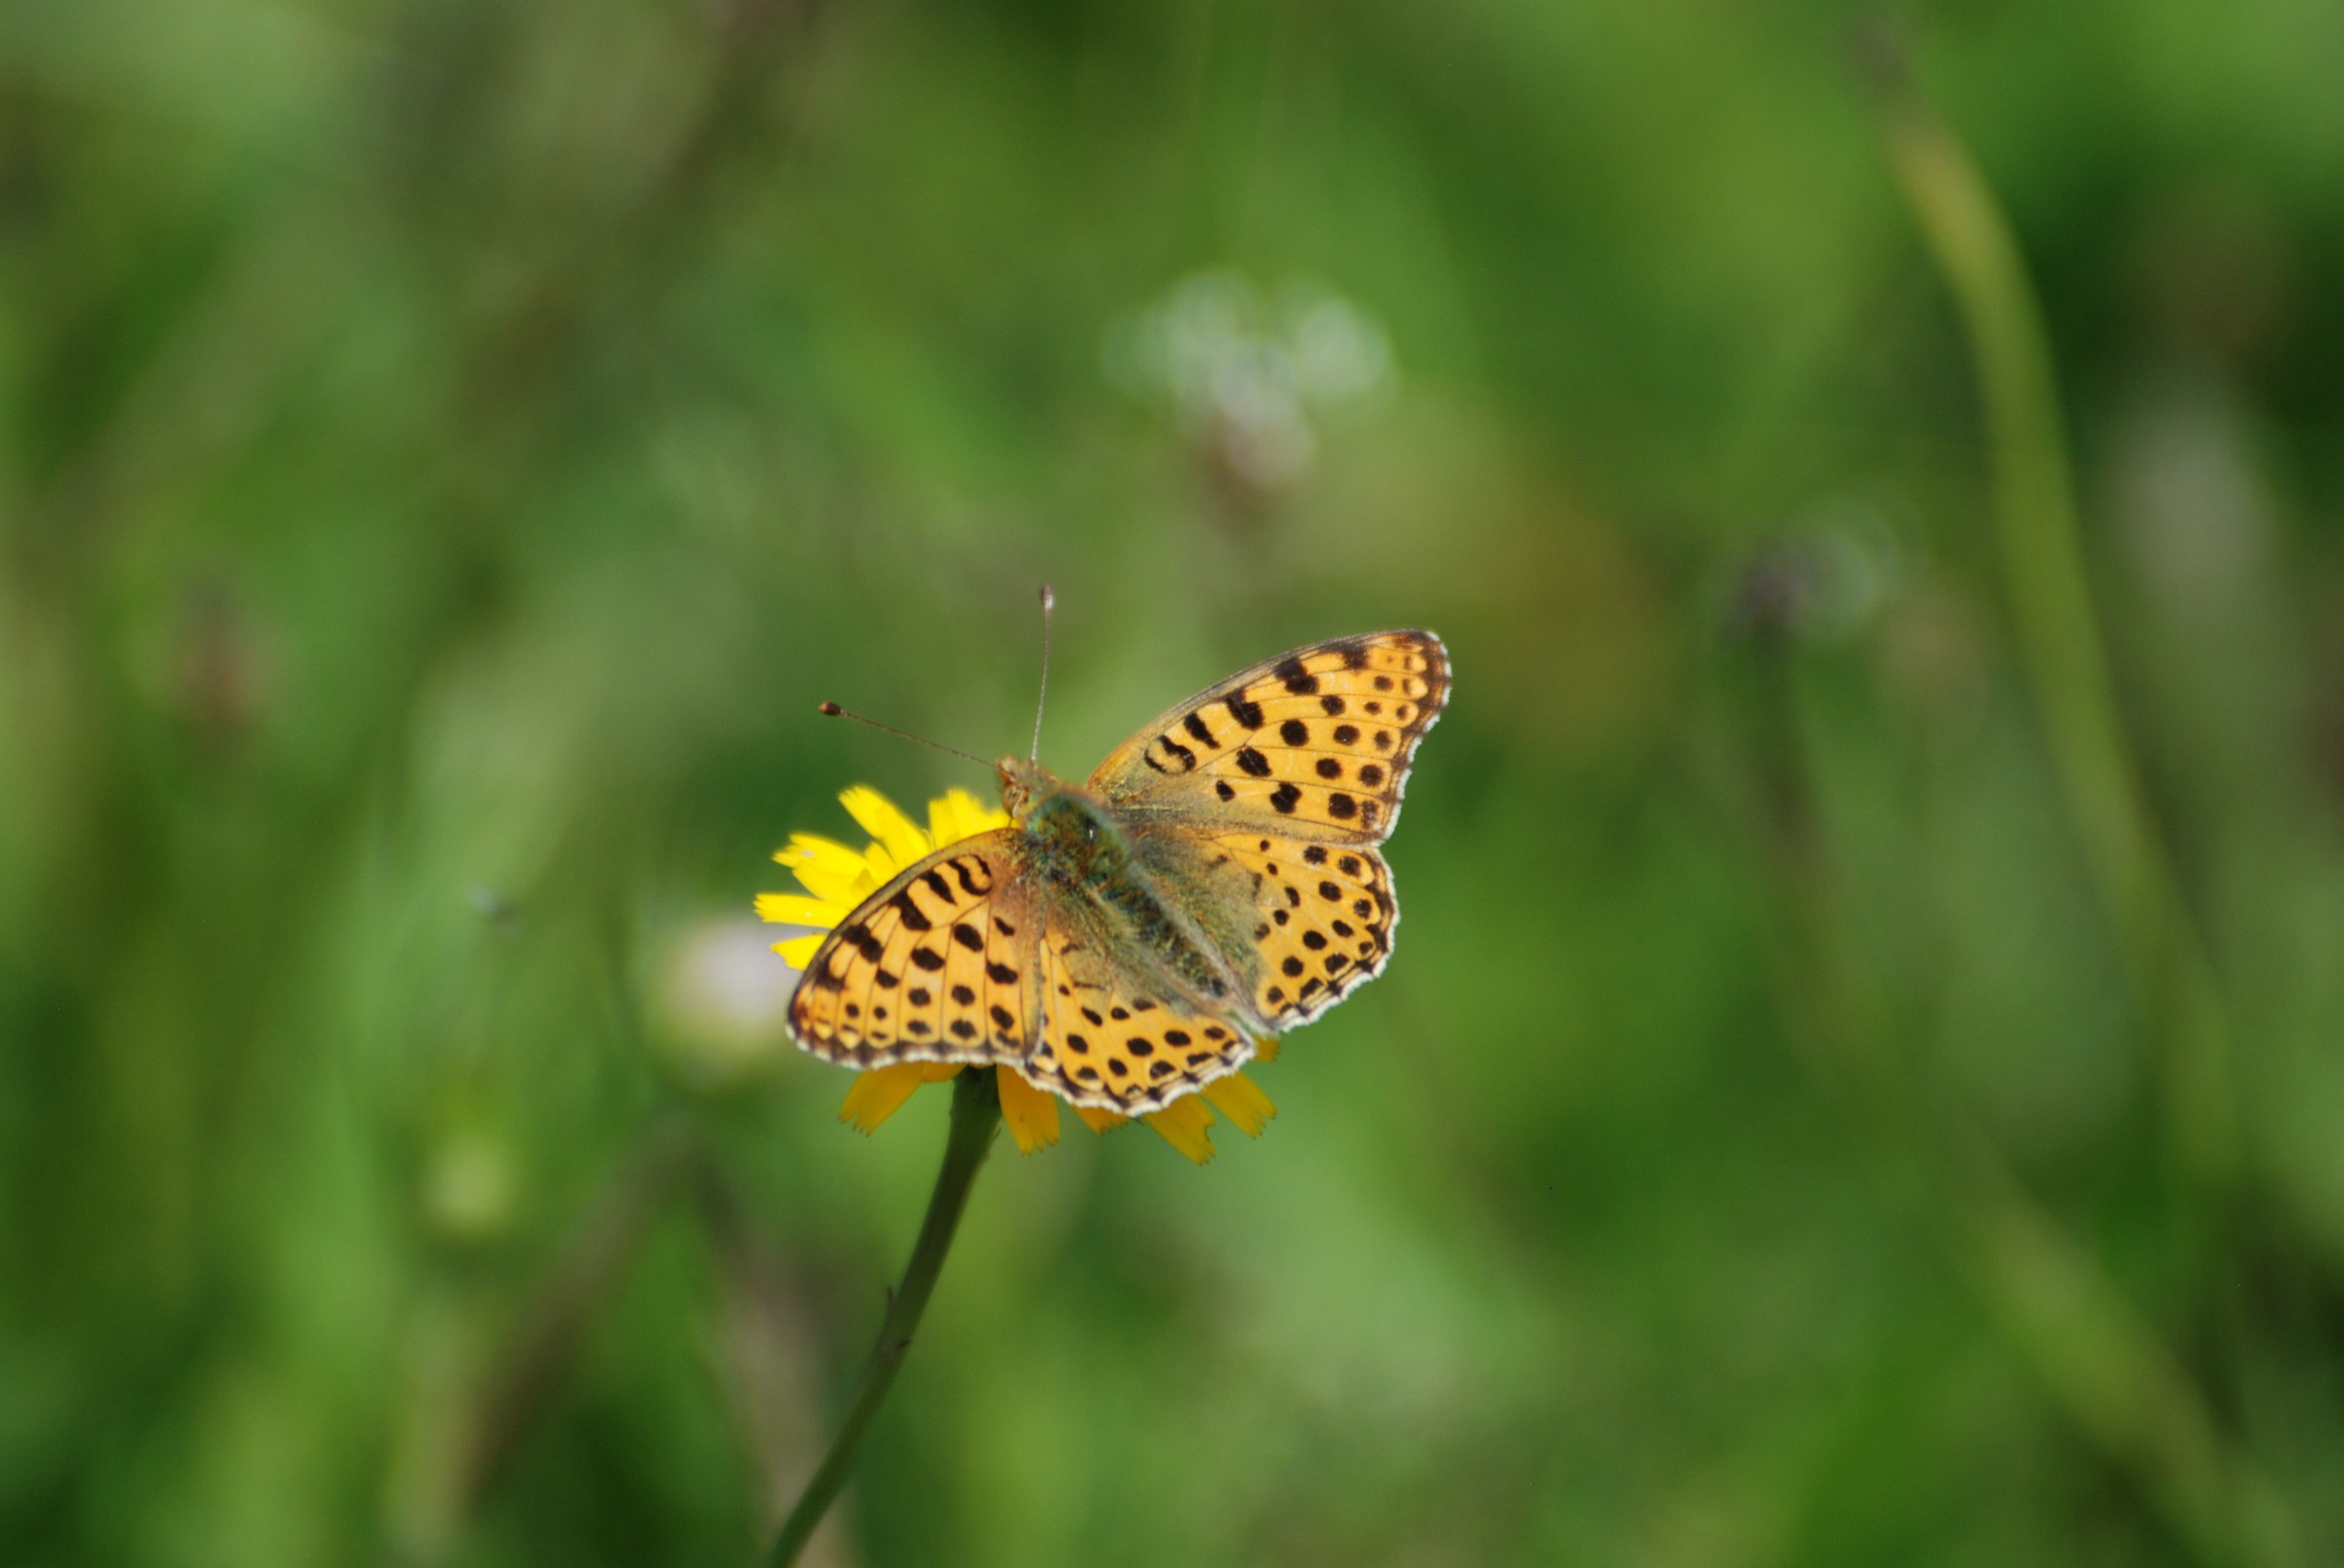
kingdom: Animalia
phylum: Arthropoda
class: Insecta
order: Lepidoptera
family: Nymphalidae
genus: Issoria
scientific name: Issoria lathonia
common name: Storplettet perlemorsommerfugl
